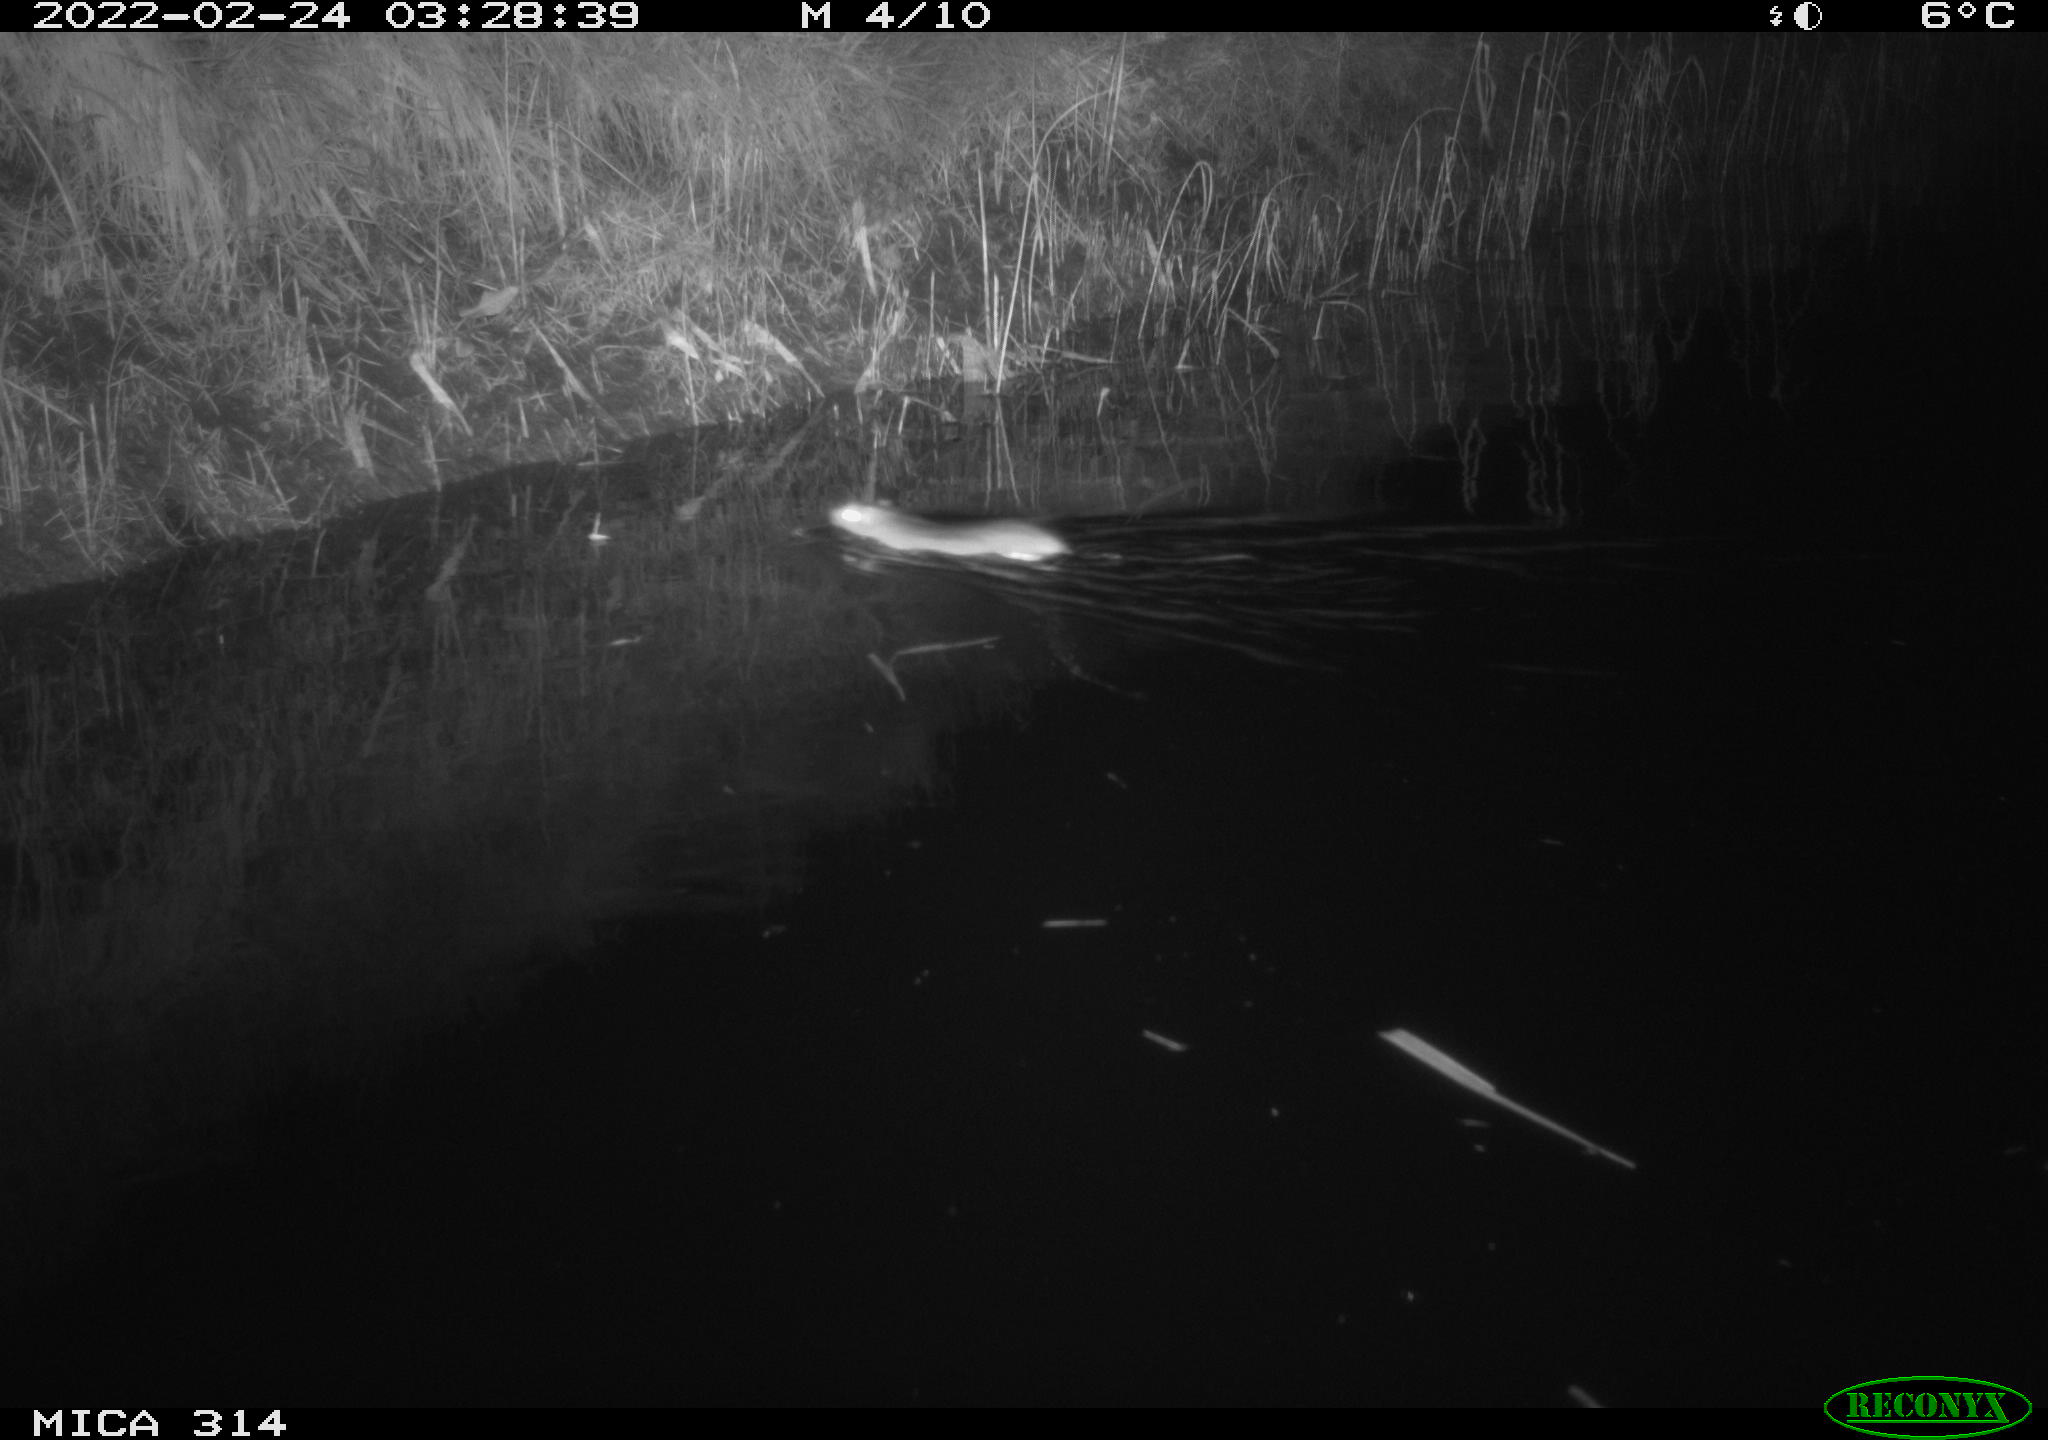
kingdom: Animalia
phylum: Chordata
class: Mammalia
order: Rodentia
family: Muridae
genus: Rattus
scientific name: Rattus norvegicus
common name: Brown rat
